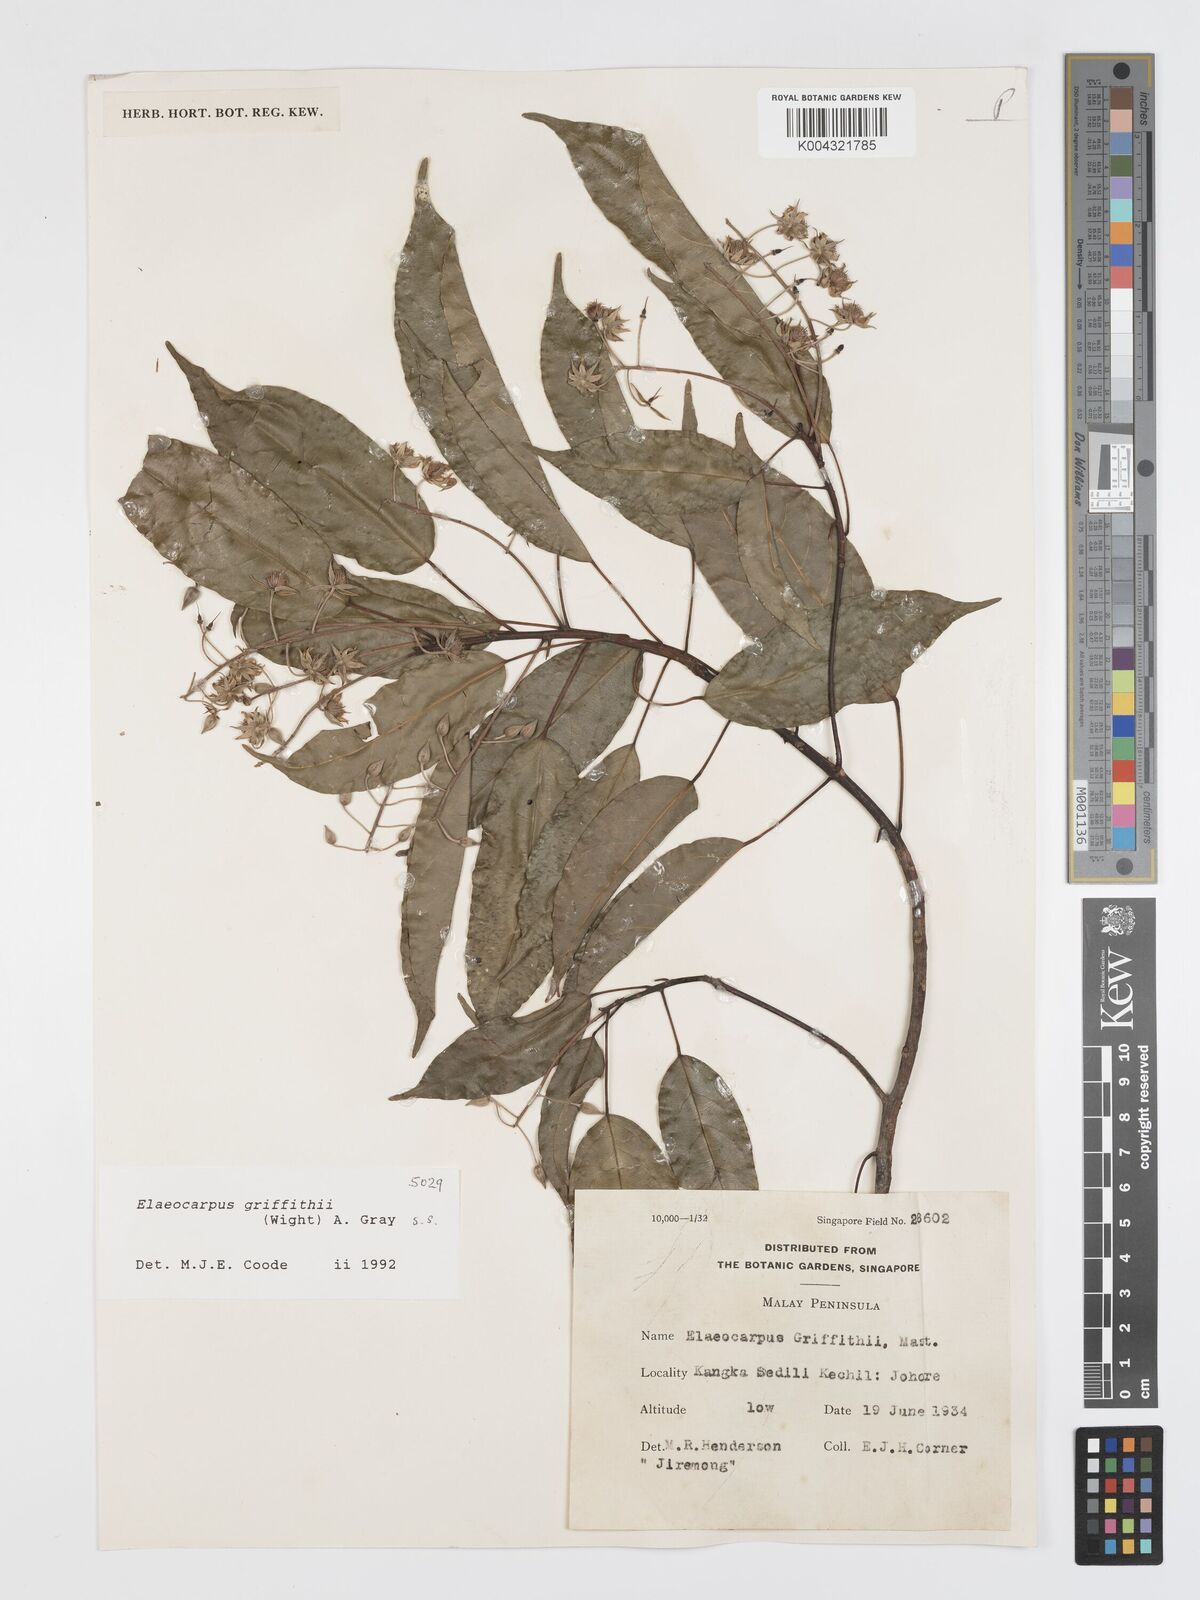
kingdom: Plantae
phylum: Tracheophyta
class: Magnoliopsida
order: Oxalidales
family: Elaeocarpaceae
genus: Elaeocarpus
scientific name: Elaeocarpus griffithii
